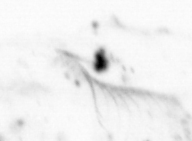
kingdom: Chromista
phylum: Ochrophyta
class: Bacillariophyceae
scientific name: Bacillariophyceae
